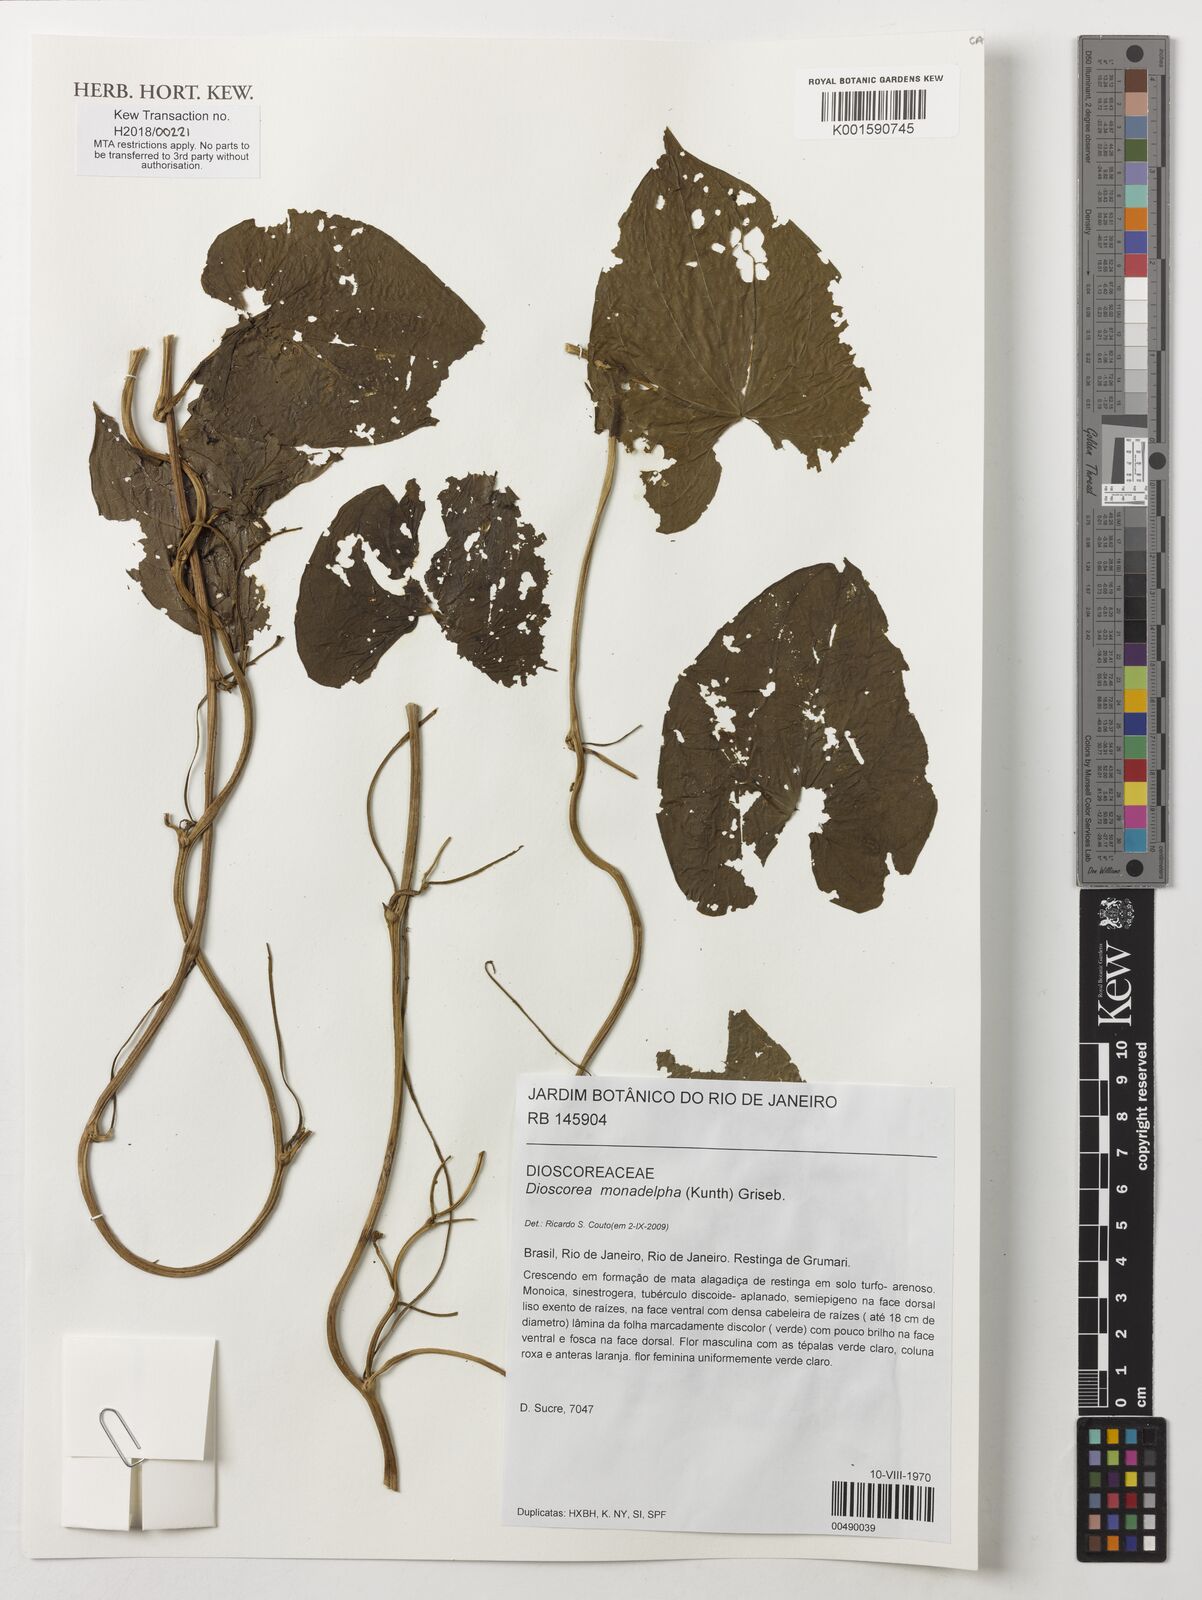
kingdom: Plantae
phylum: Tracheophyta
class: Liliopsida
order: Dioscoreales
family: Dioscoreaceae
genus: Dioscorea
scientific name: Dioscorea monadelpha
